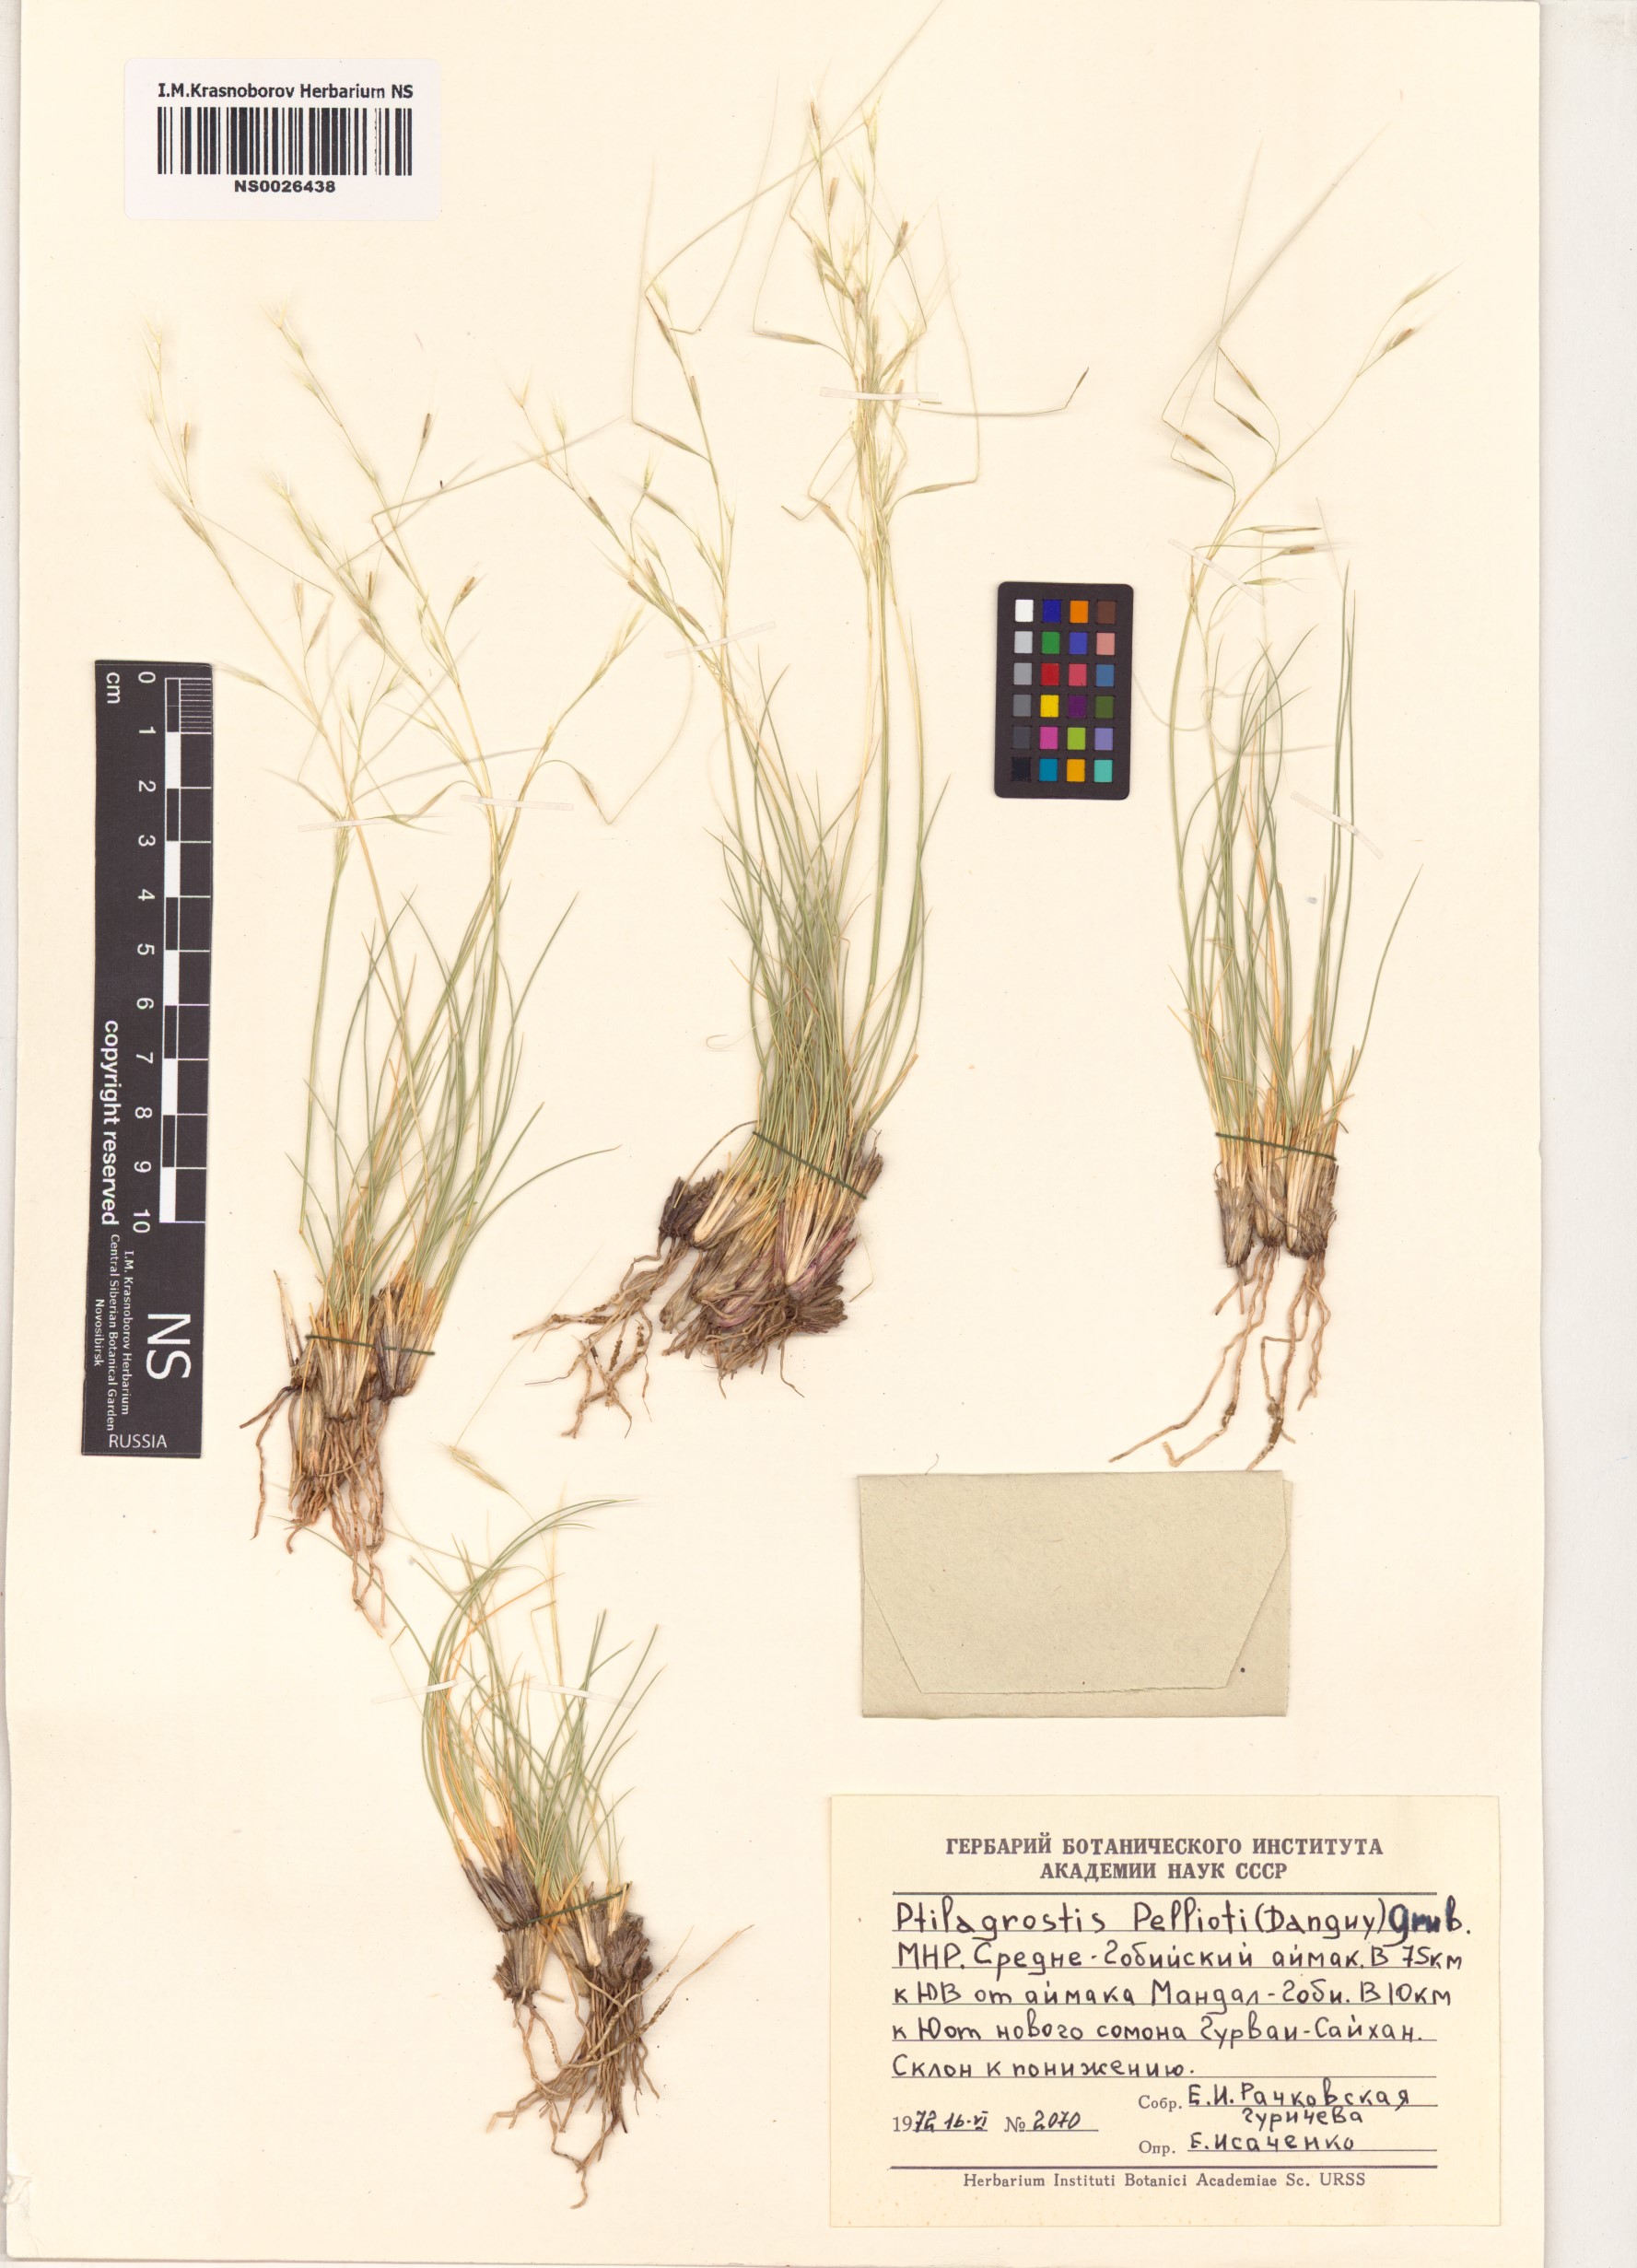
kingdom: Plantae
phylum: Tracheophyta
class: Liliopsida
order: Poales
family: Poaceae
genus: Achnatherum
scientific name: Achnatherum pelliotii
